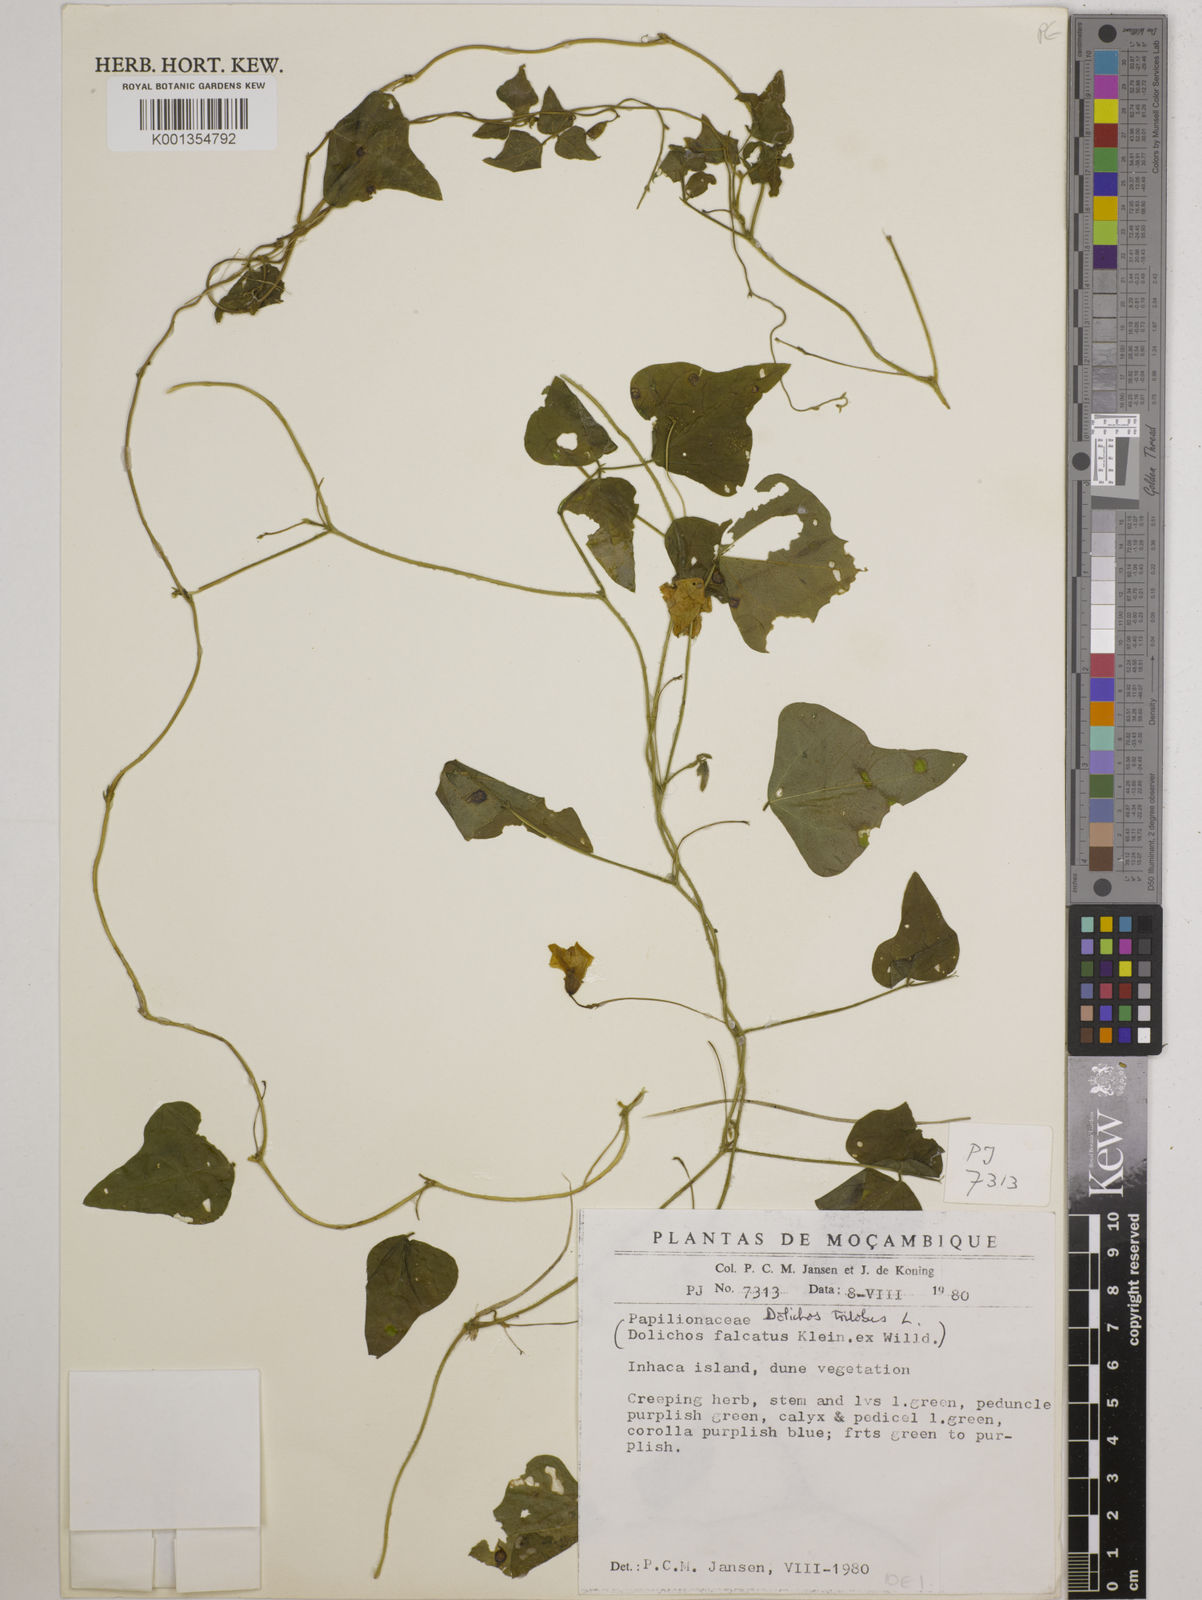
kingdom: Plantae
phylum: Tracheophyta
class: Magnoliopsida
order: Fabales
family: Fabaceae
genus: Dolichos
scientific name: Dolichos
